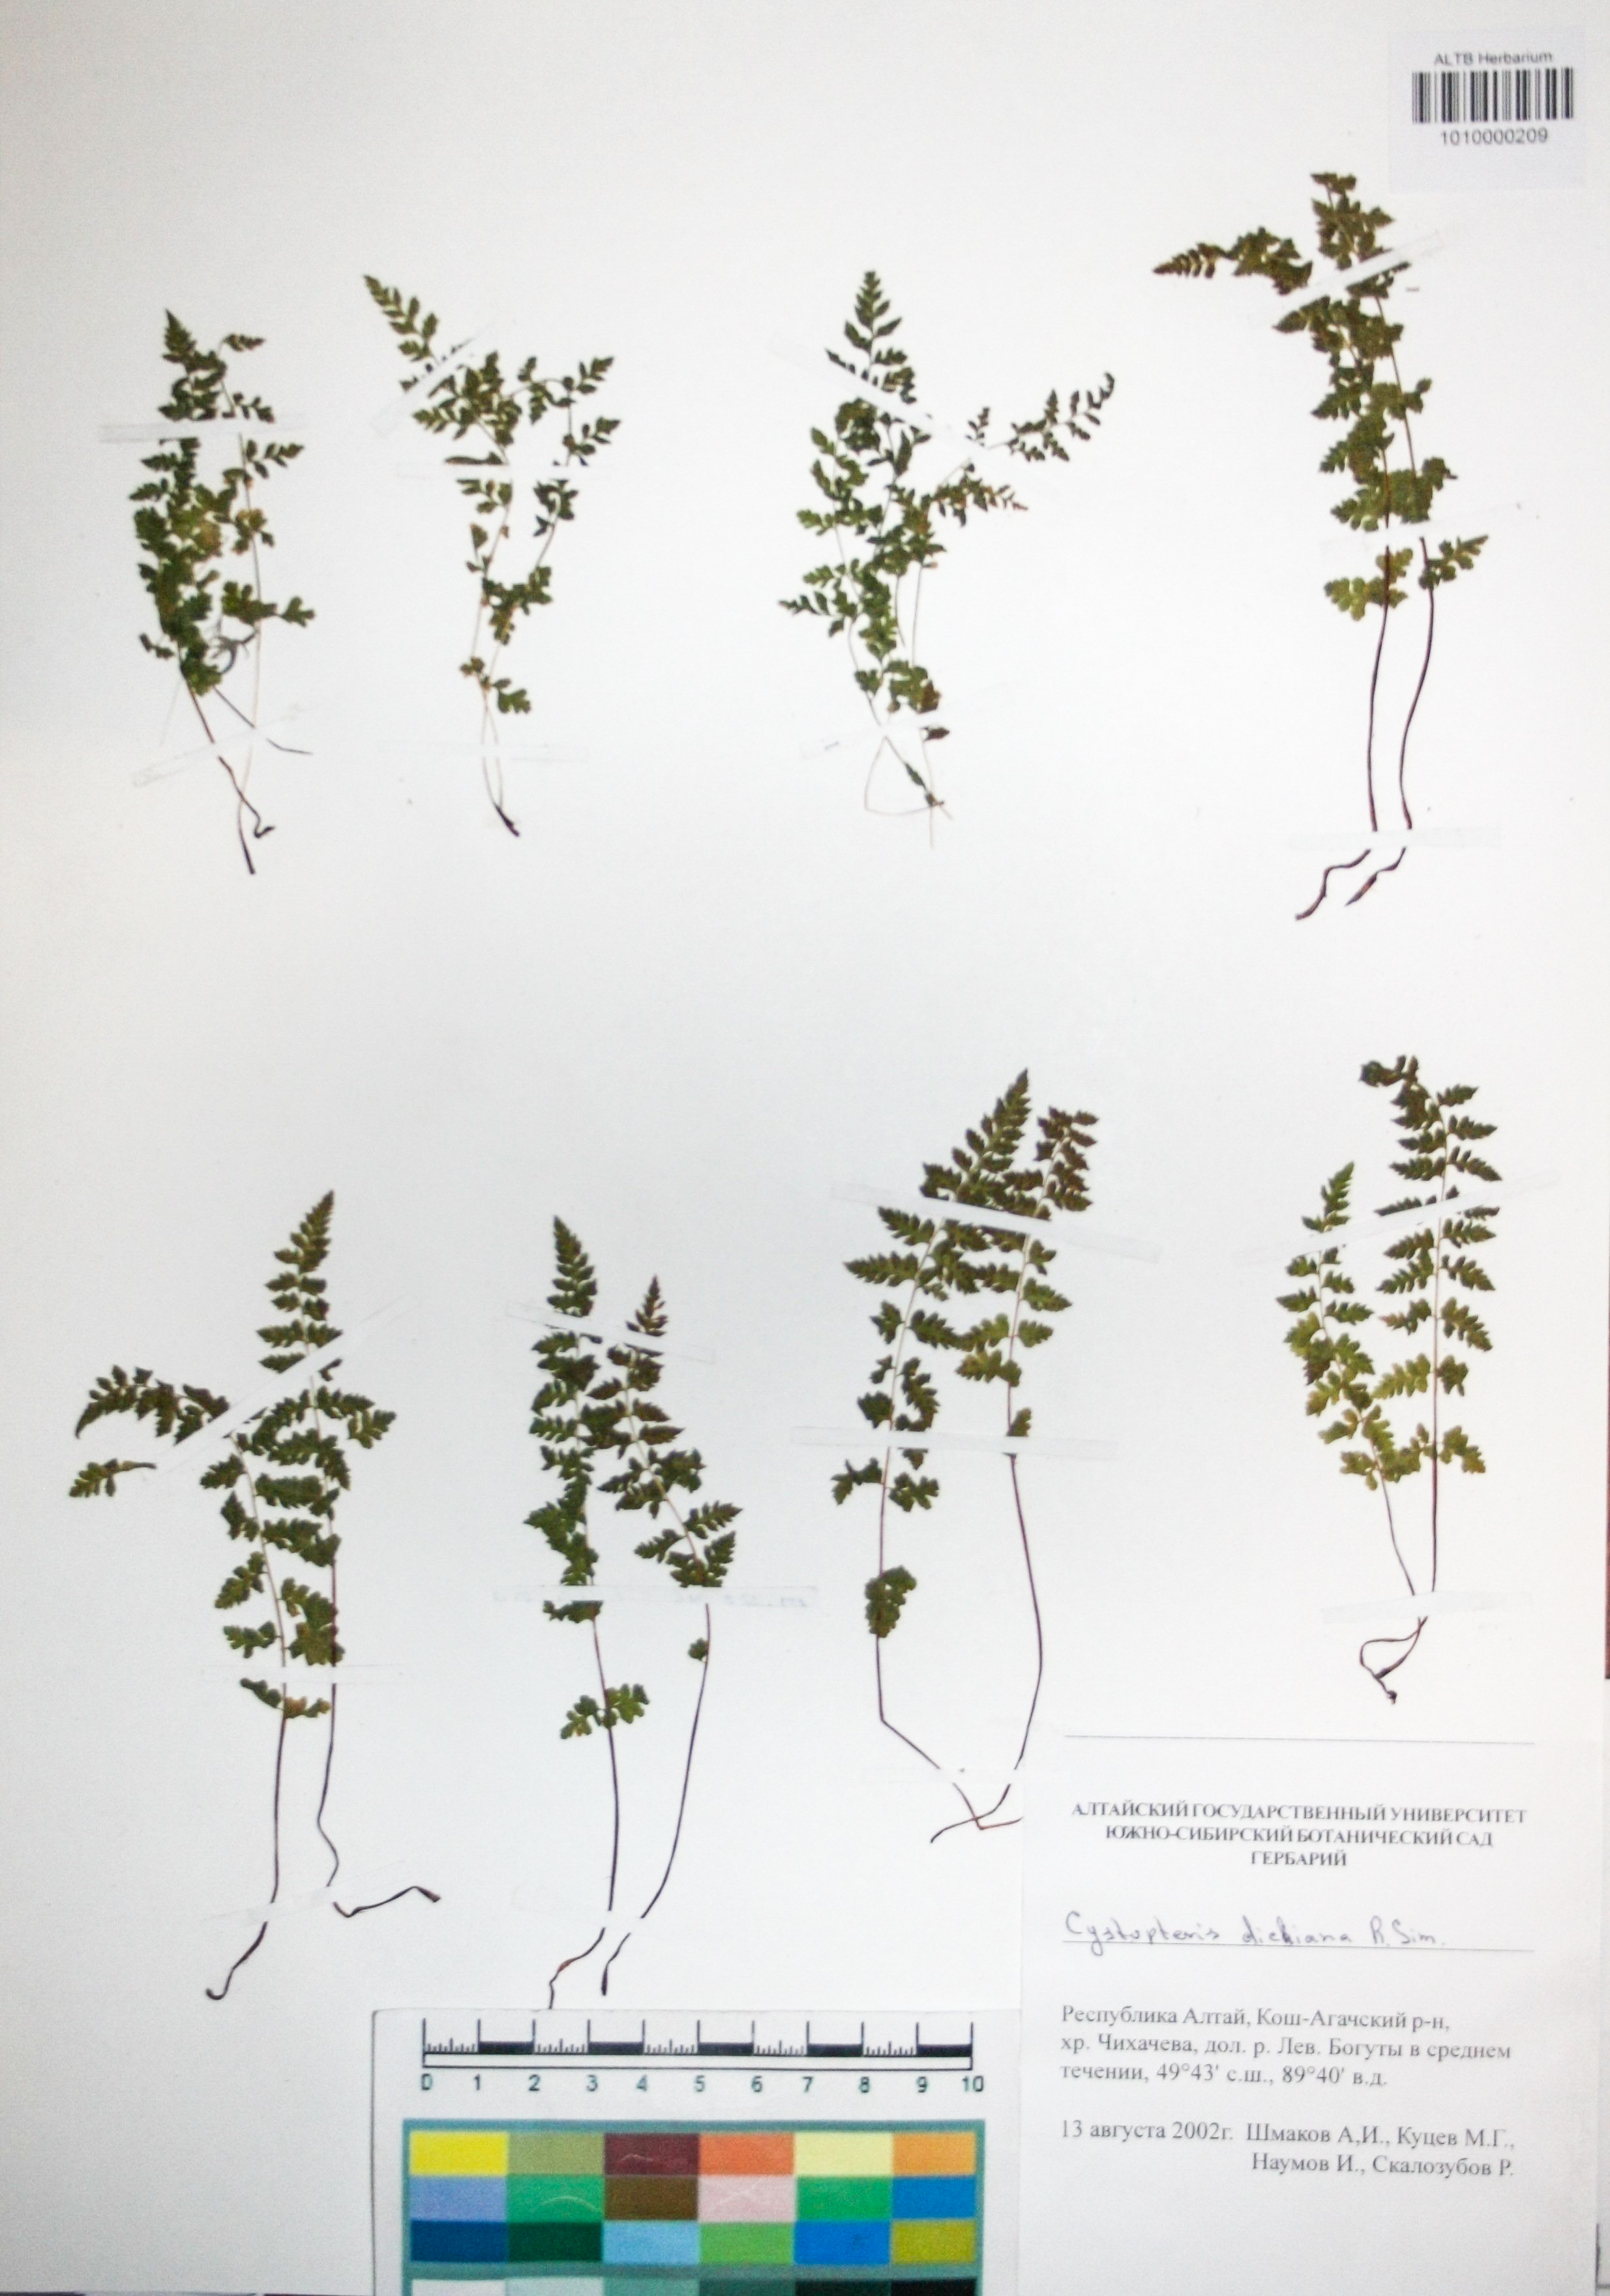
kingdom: Plantae
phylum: Tracheophyta
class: Polypodiopsida
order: Polypodiales
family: Cystopteridaceae
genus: Cystopteris
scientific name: Cystopteris dickieana
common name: Dickie's bladder-fern
